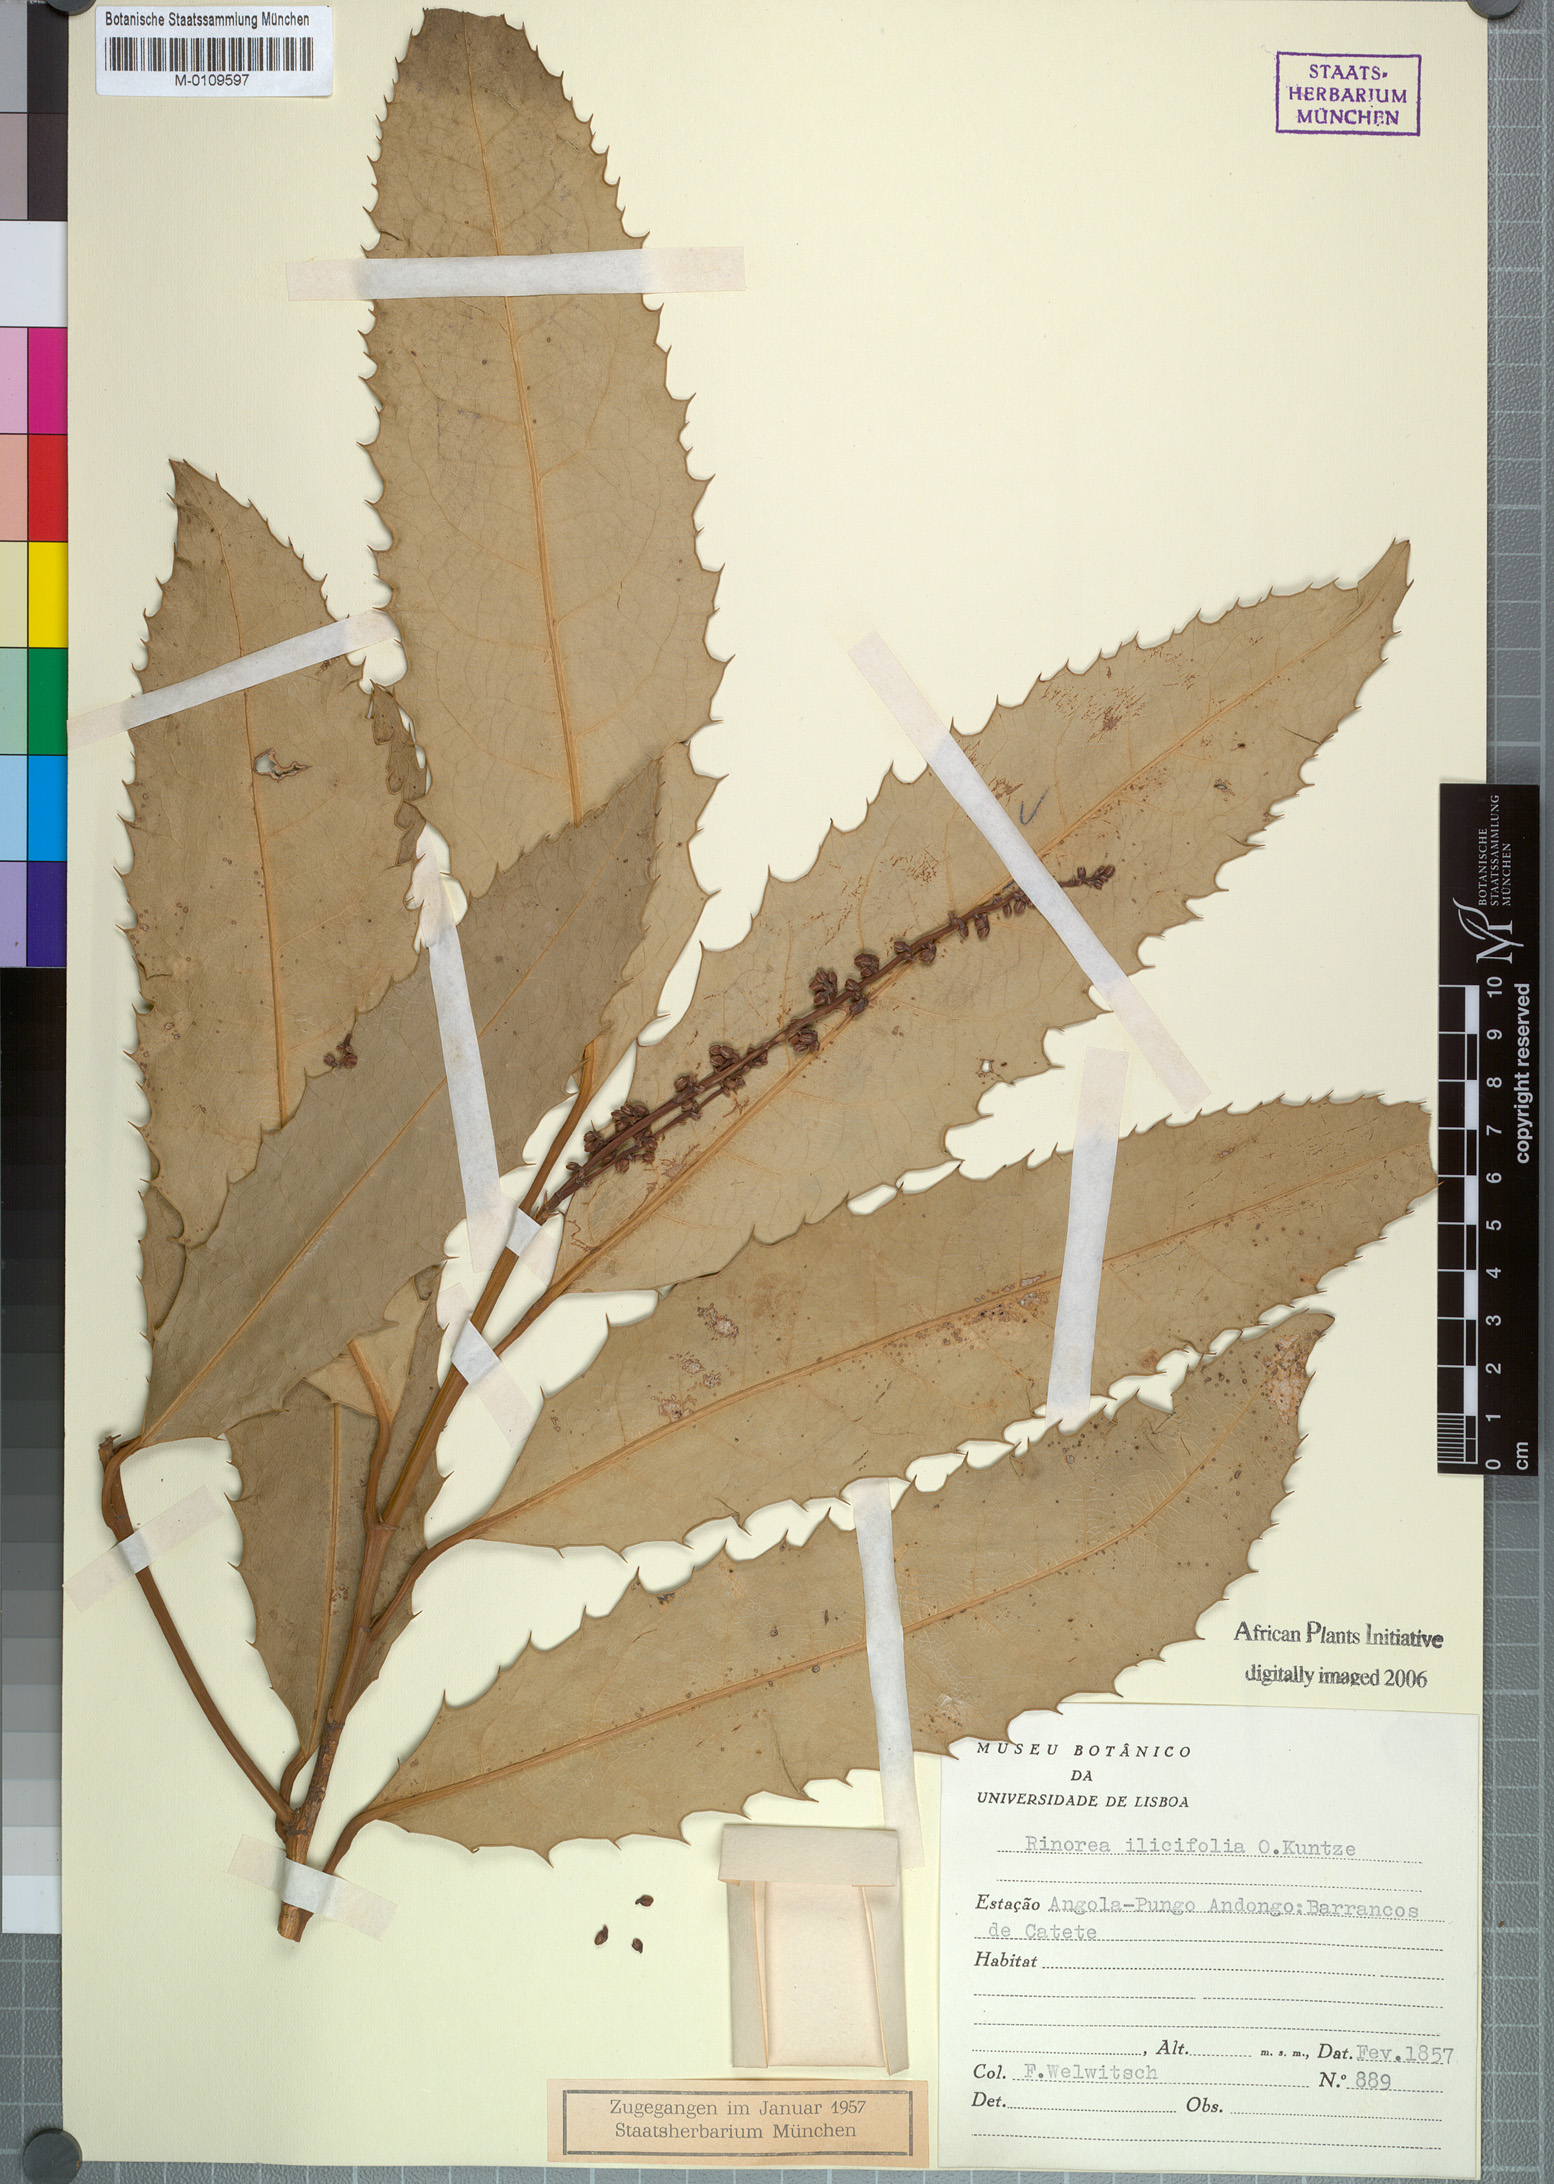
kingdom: Plantae
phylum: Tracheophyta
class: Magnoliopsida
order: Malpighiales
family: Violaceae
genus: Rinorea
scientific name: Rinorea ilicifolia
